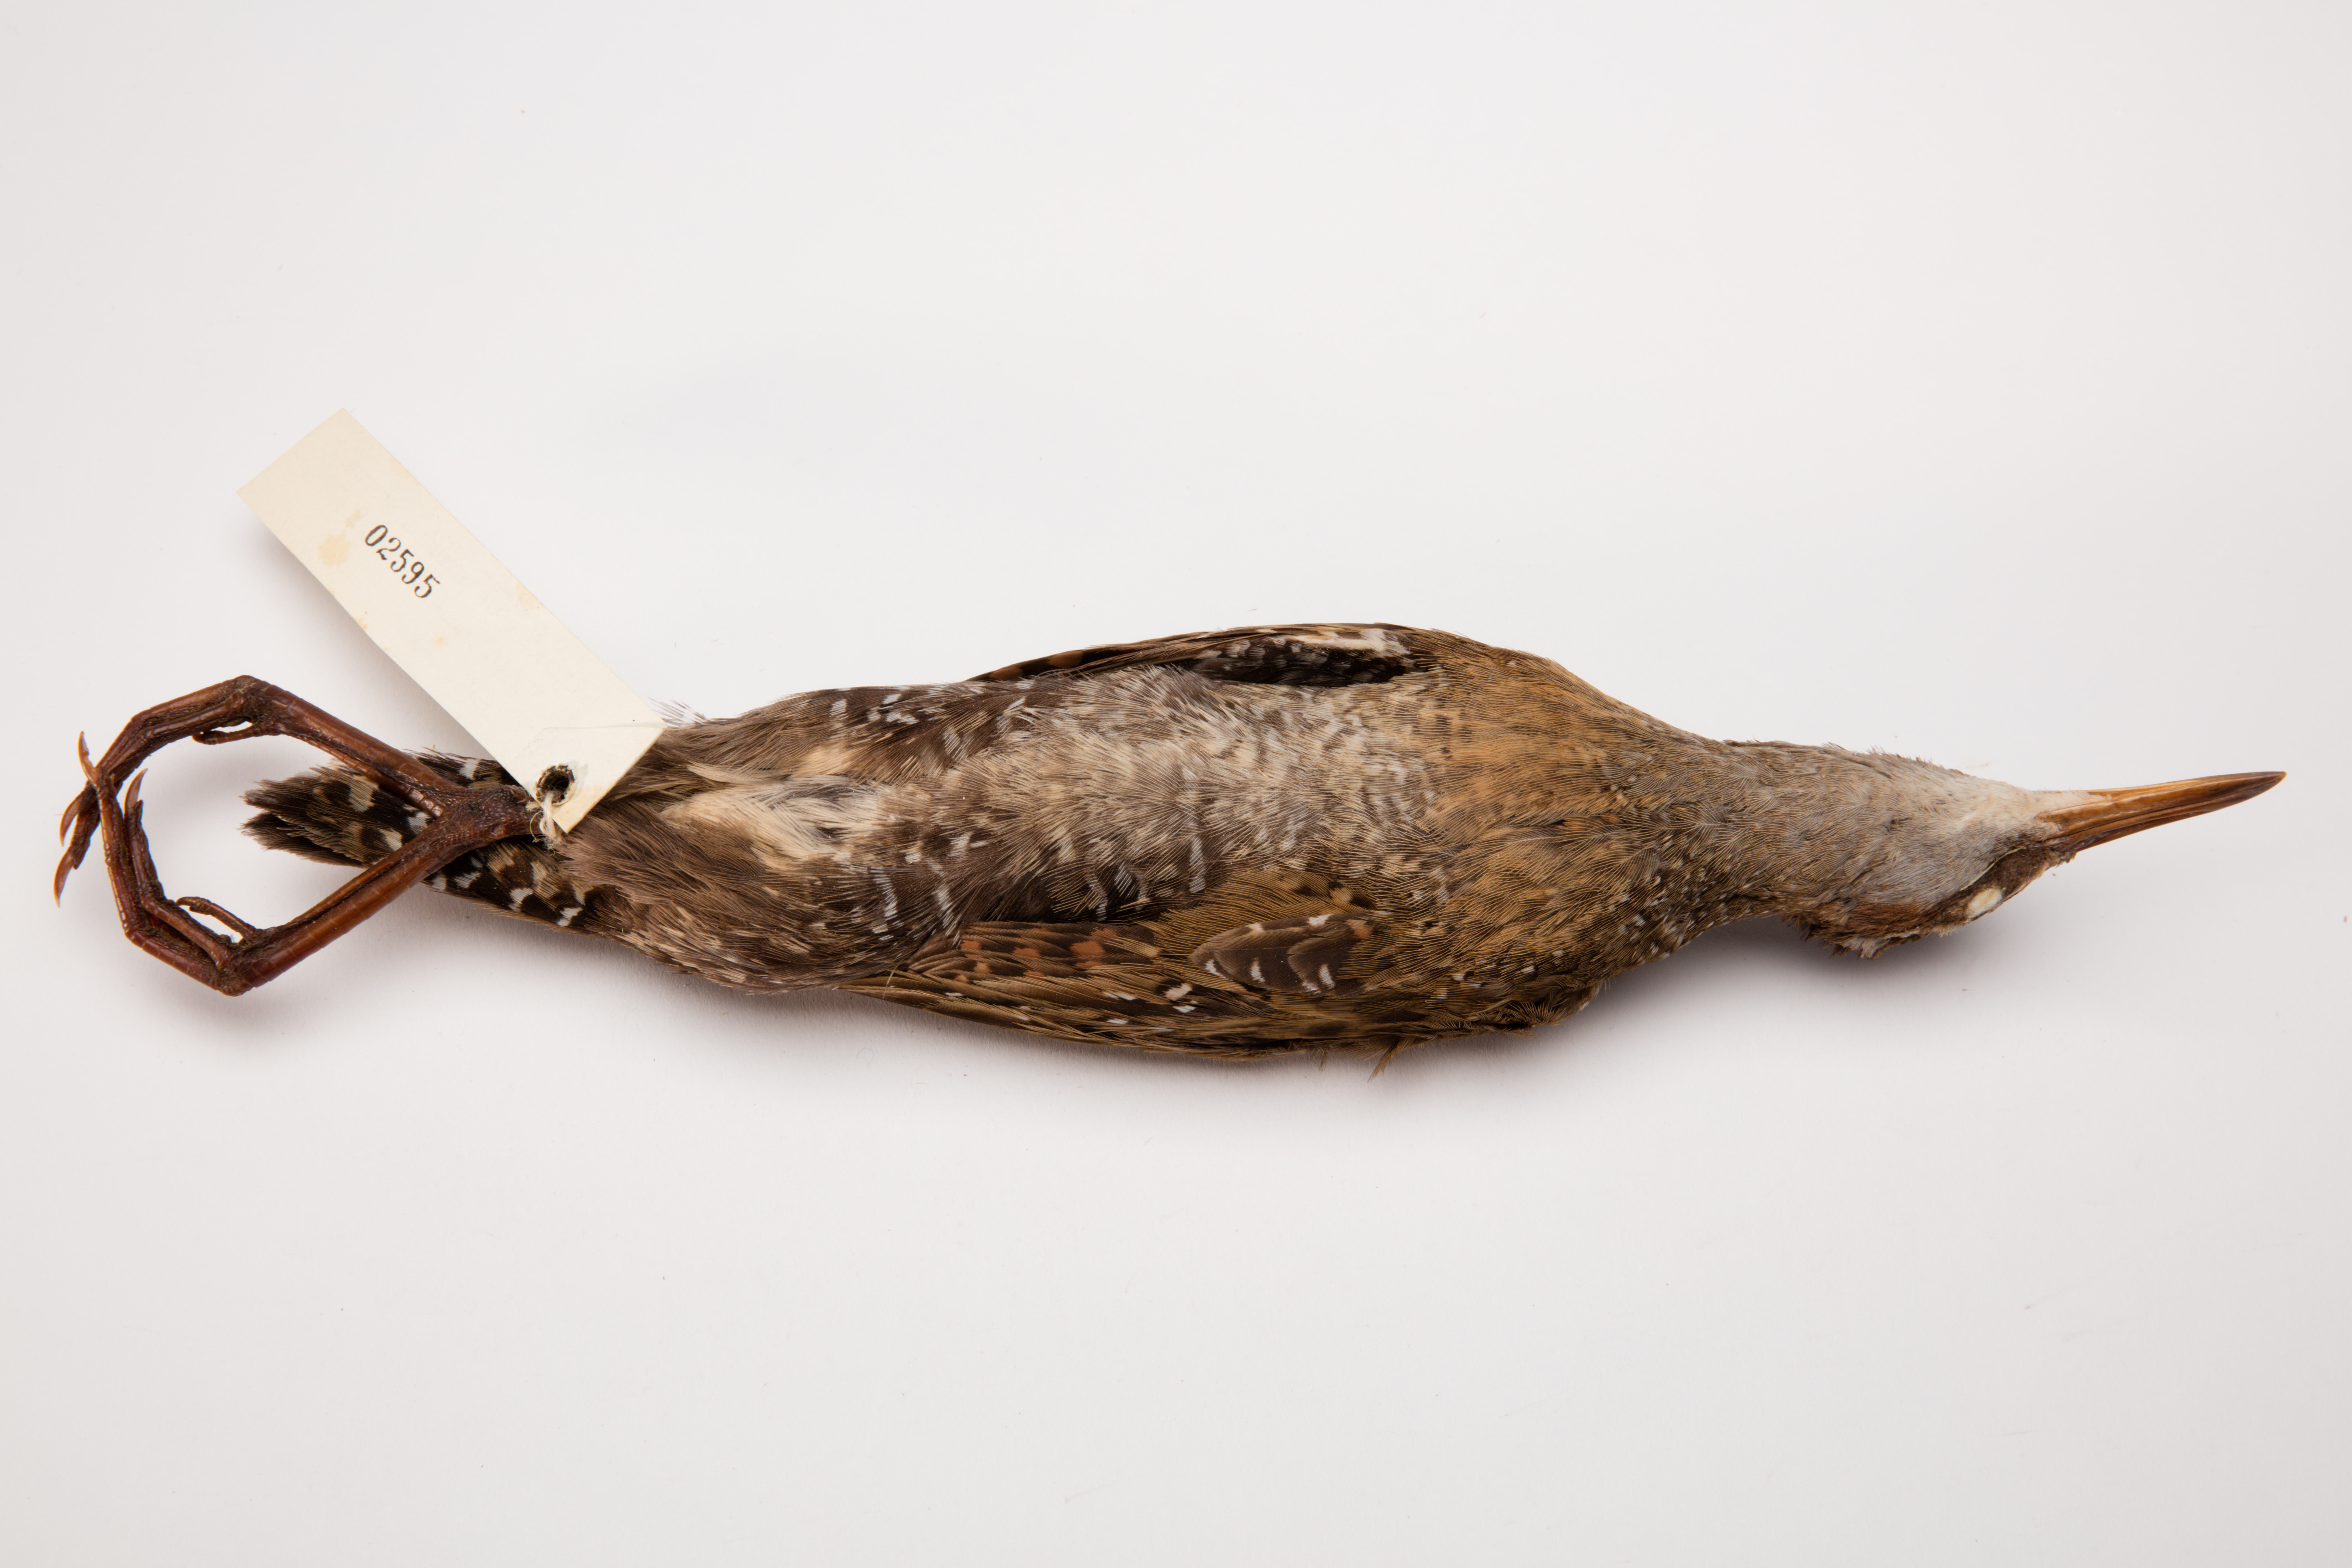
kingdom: Animalia
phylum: Chordata
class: Aves
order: Gruiformes
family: Rallidae
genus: Gallirallus
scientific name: Gallirallus philippensis
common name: Buff-banded rail
